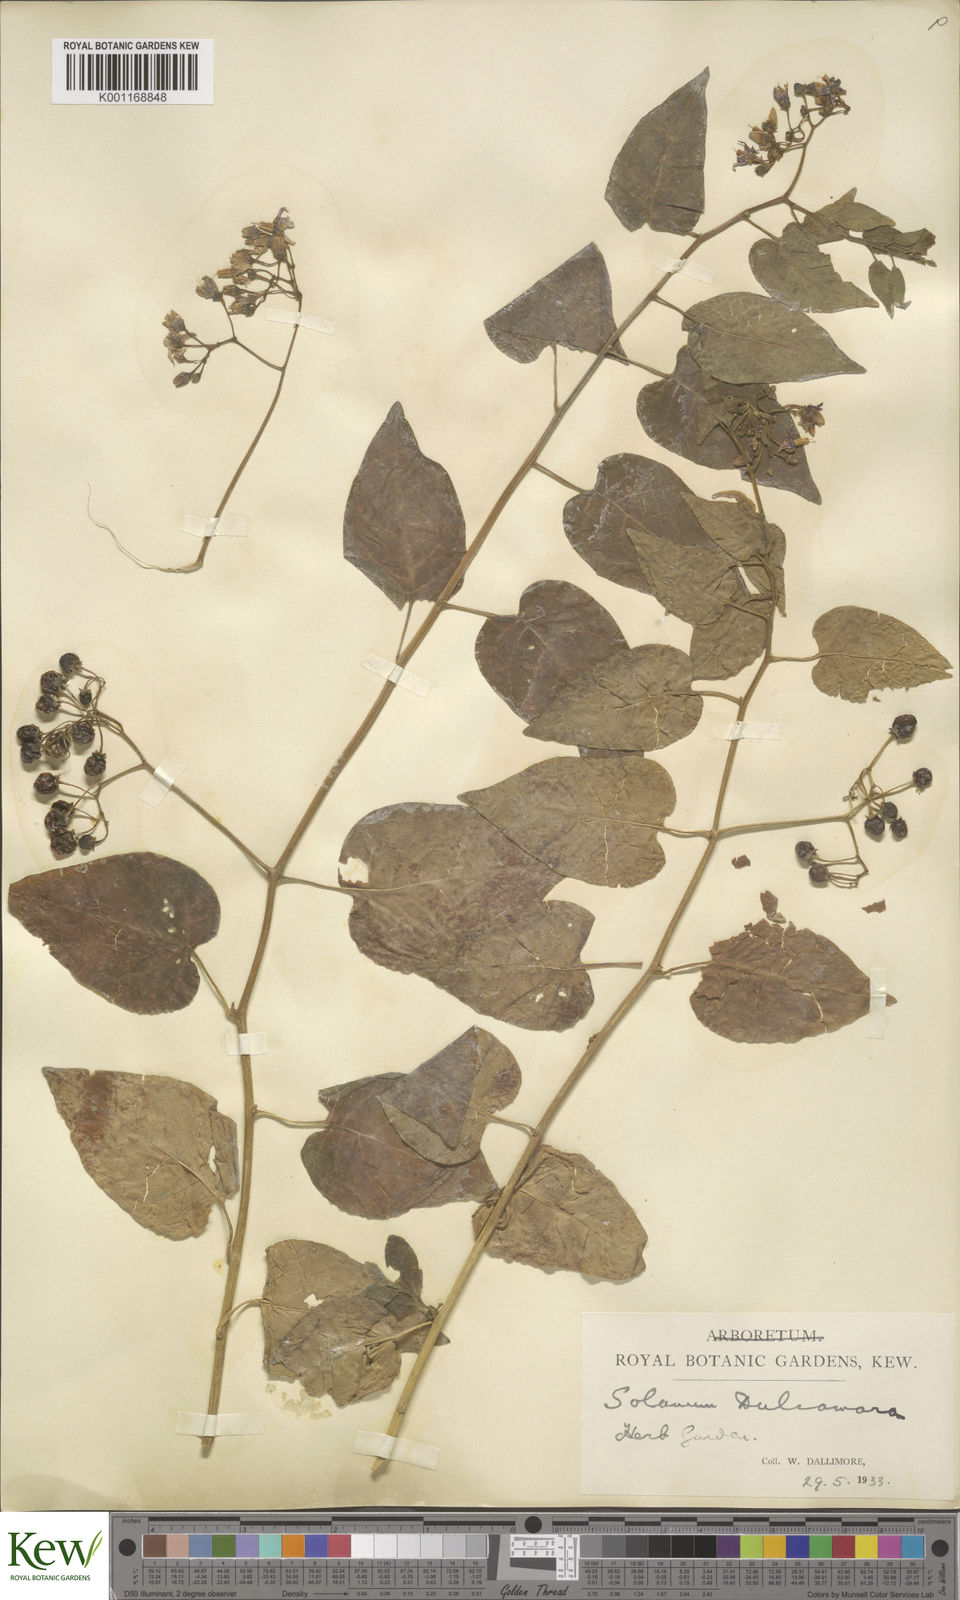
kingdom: Plantae
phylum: Tracheophyta
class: Magnoliopsida
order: Solanales
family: Solanaceae
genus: Solanum
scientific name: Solanum dulcamara
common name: Climbing nightshade
